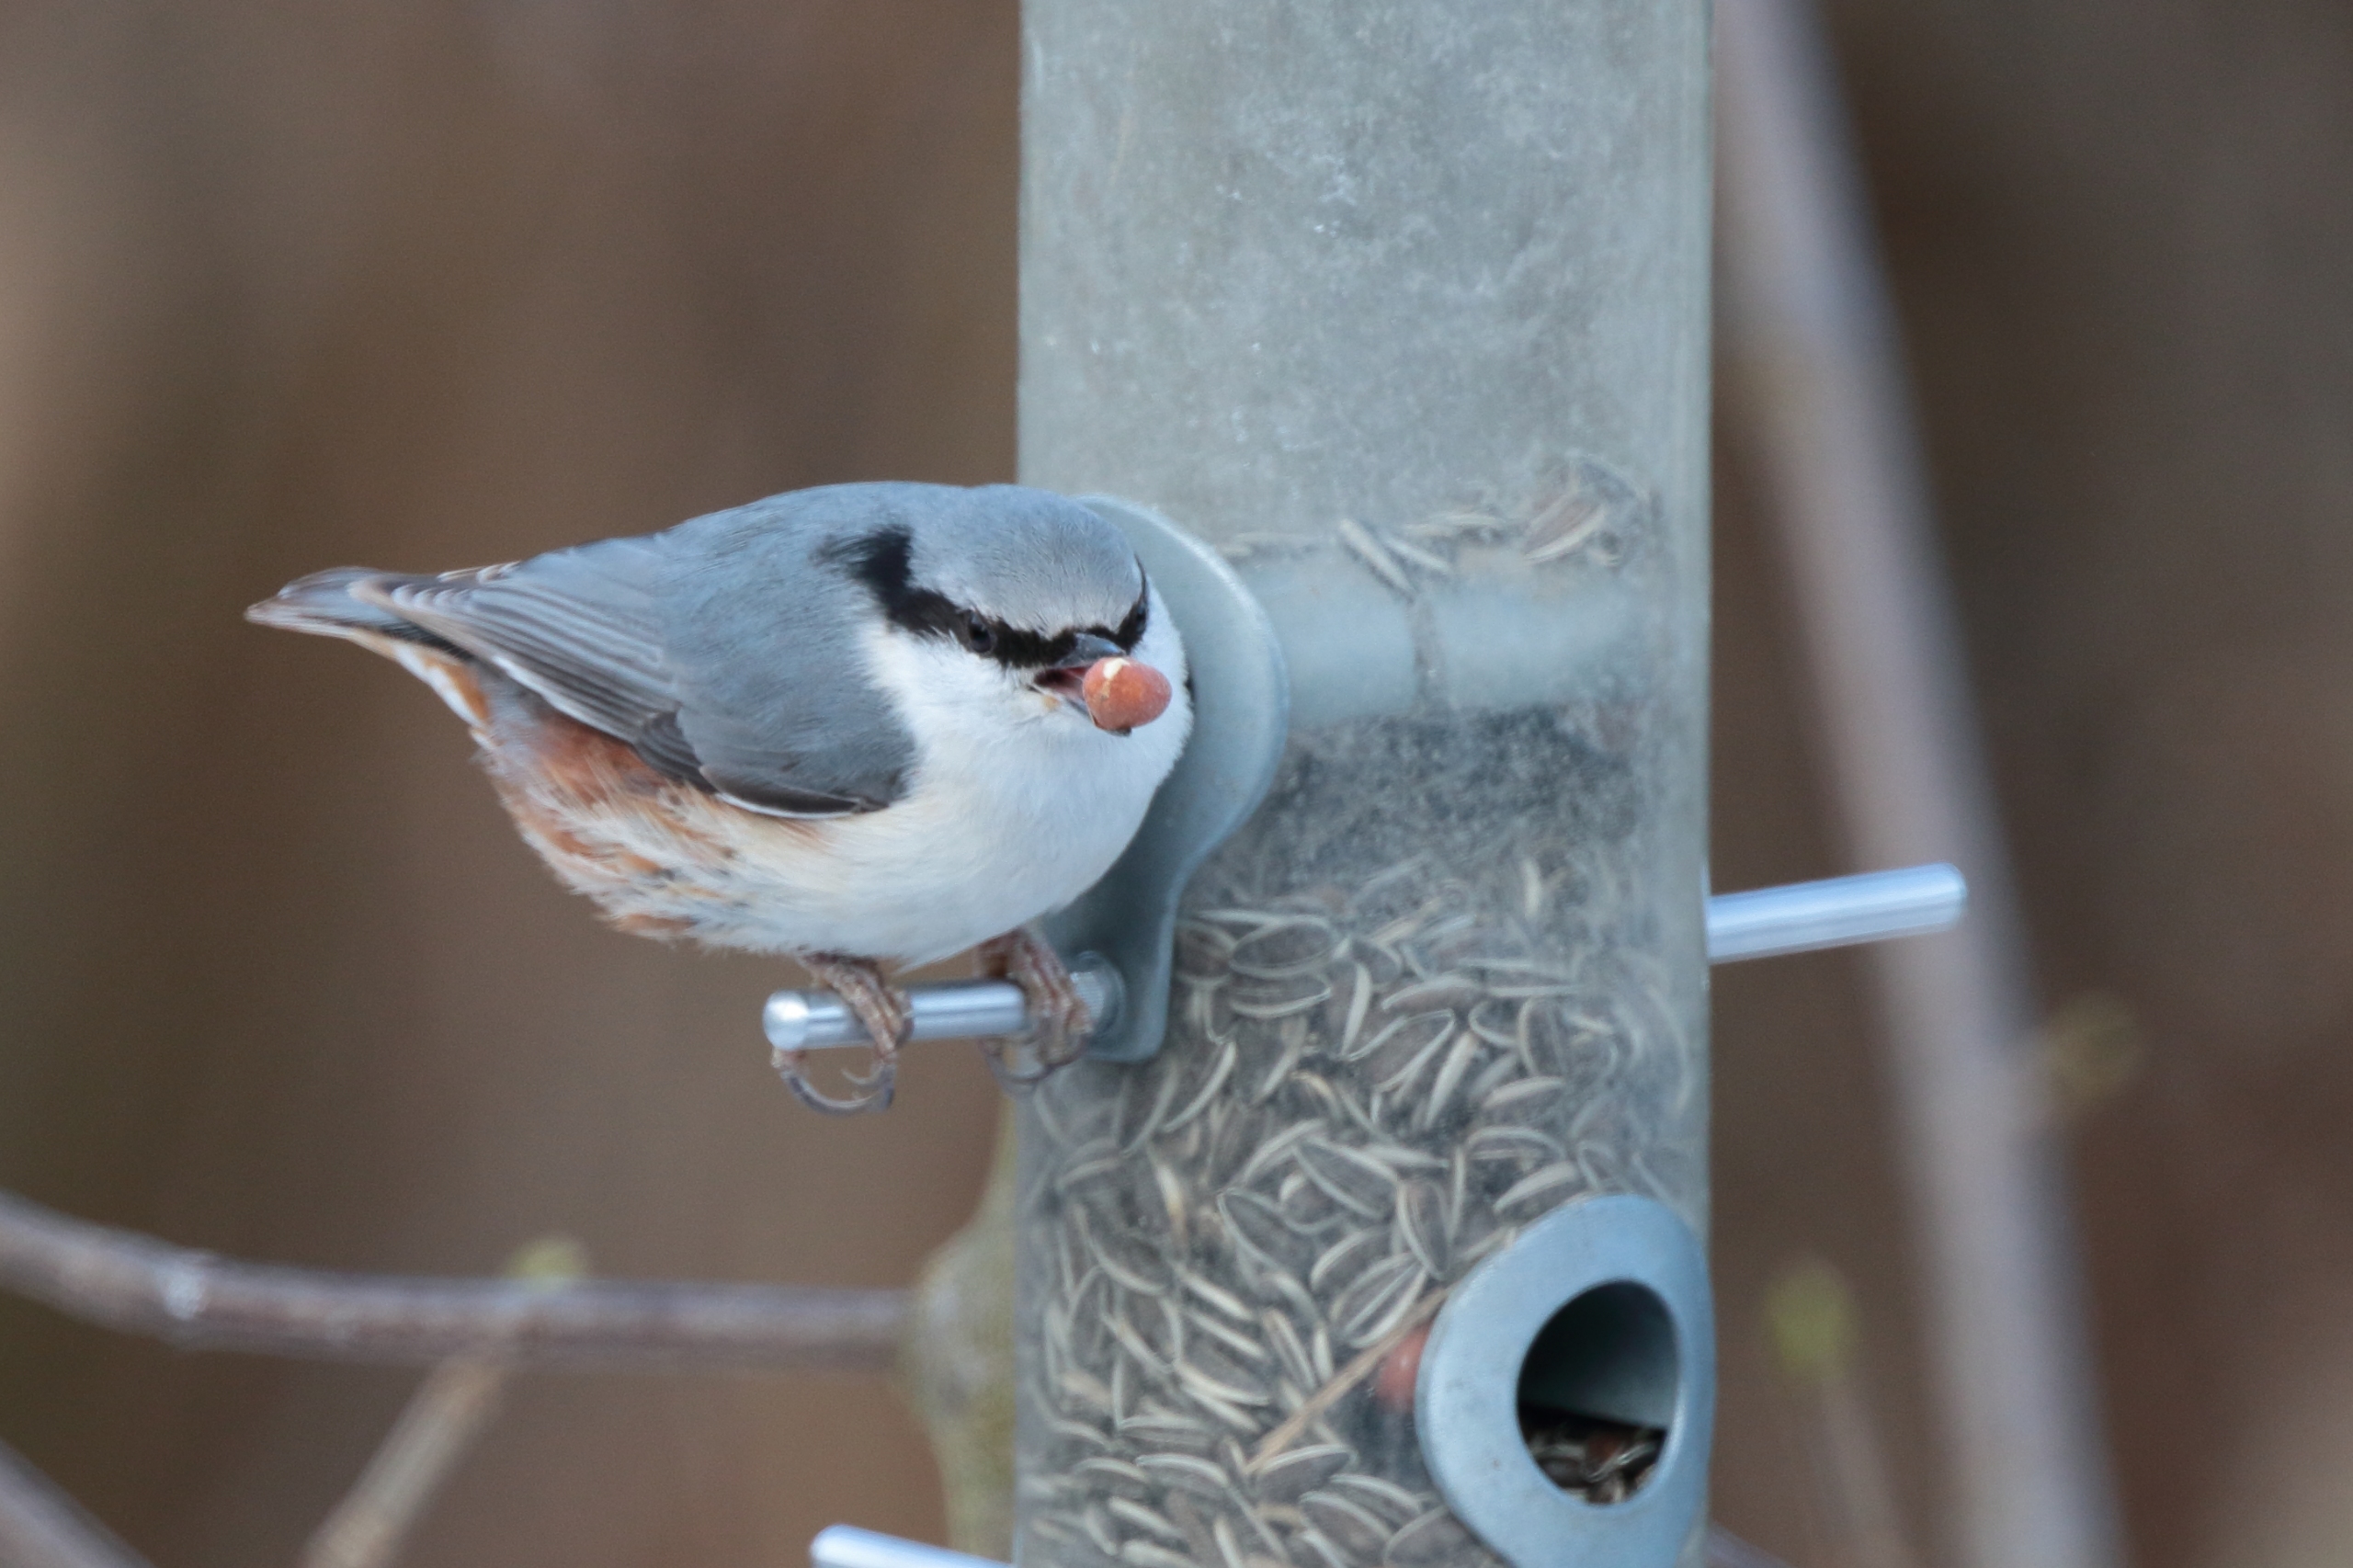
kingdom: Animalia
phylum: Chordata
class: Aves
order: Passeriformes
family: Sittidae
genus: Sitta
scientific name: Sitta europaea
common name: Spætmejse
